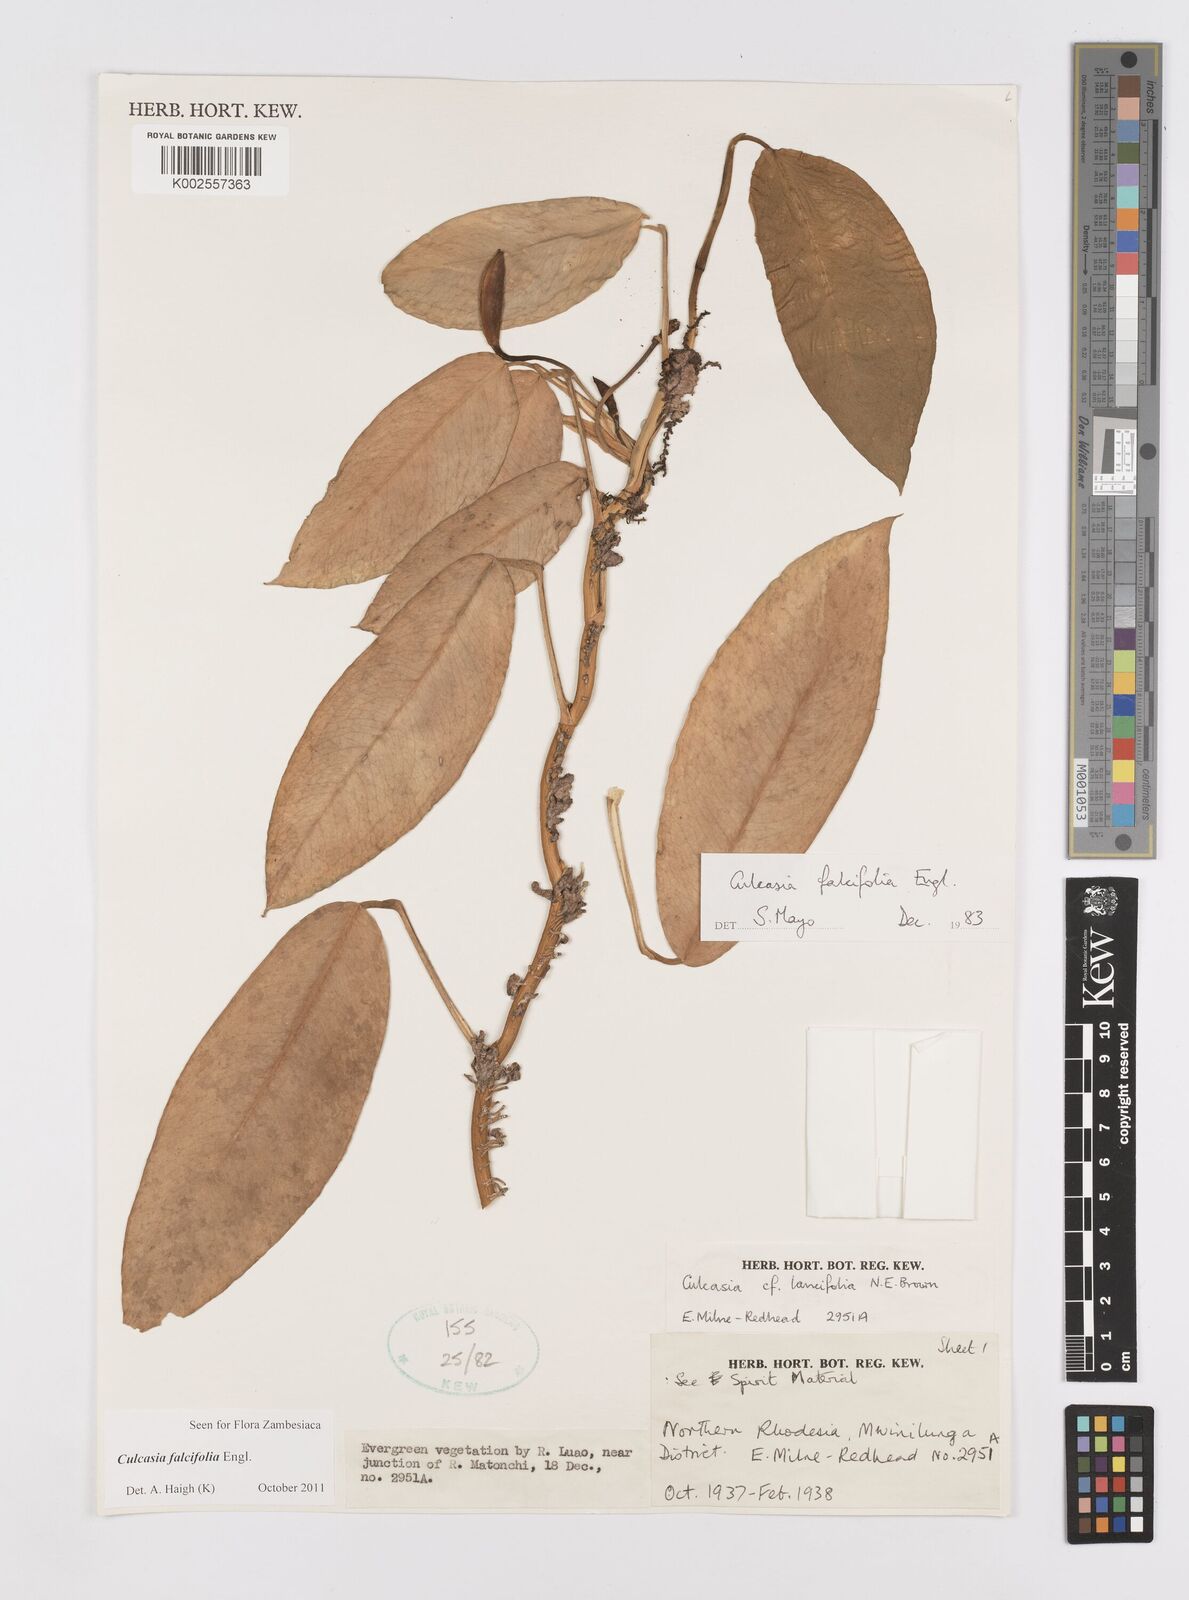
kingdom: Plantae
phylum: Tracheophyta
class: Liliopsida
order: Alismatales
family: Araceae
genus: Culcasia
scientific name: Culcasia falcifolia
